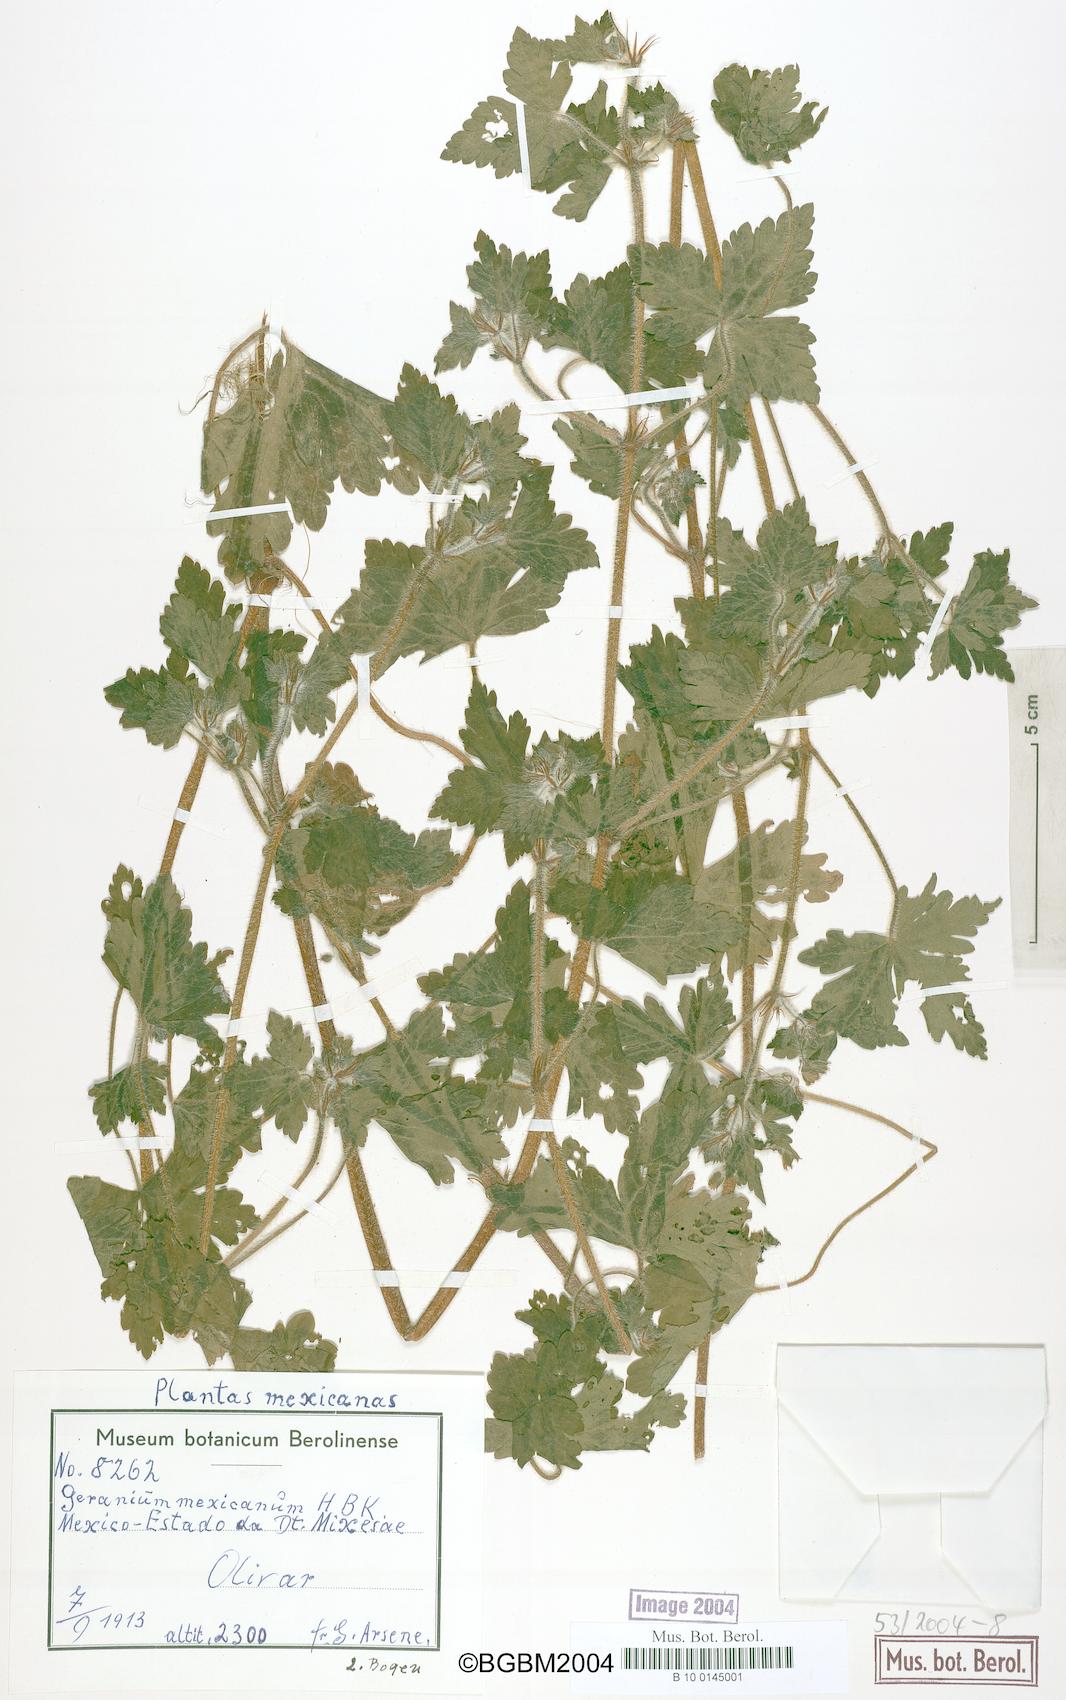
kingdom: Plantae
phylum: Tracheophyta
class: Magnoliopsida
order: Geraniales
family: Geraniaceae
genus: Geranium
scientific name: Geranium seemannii
